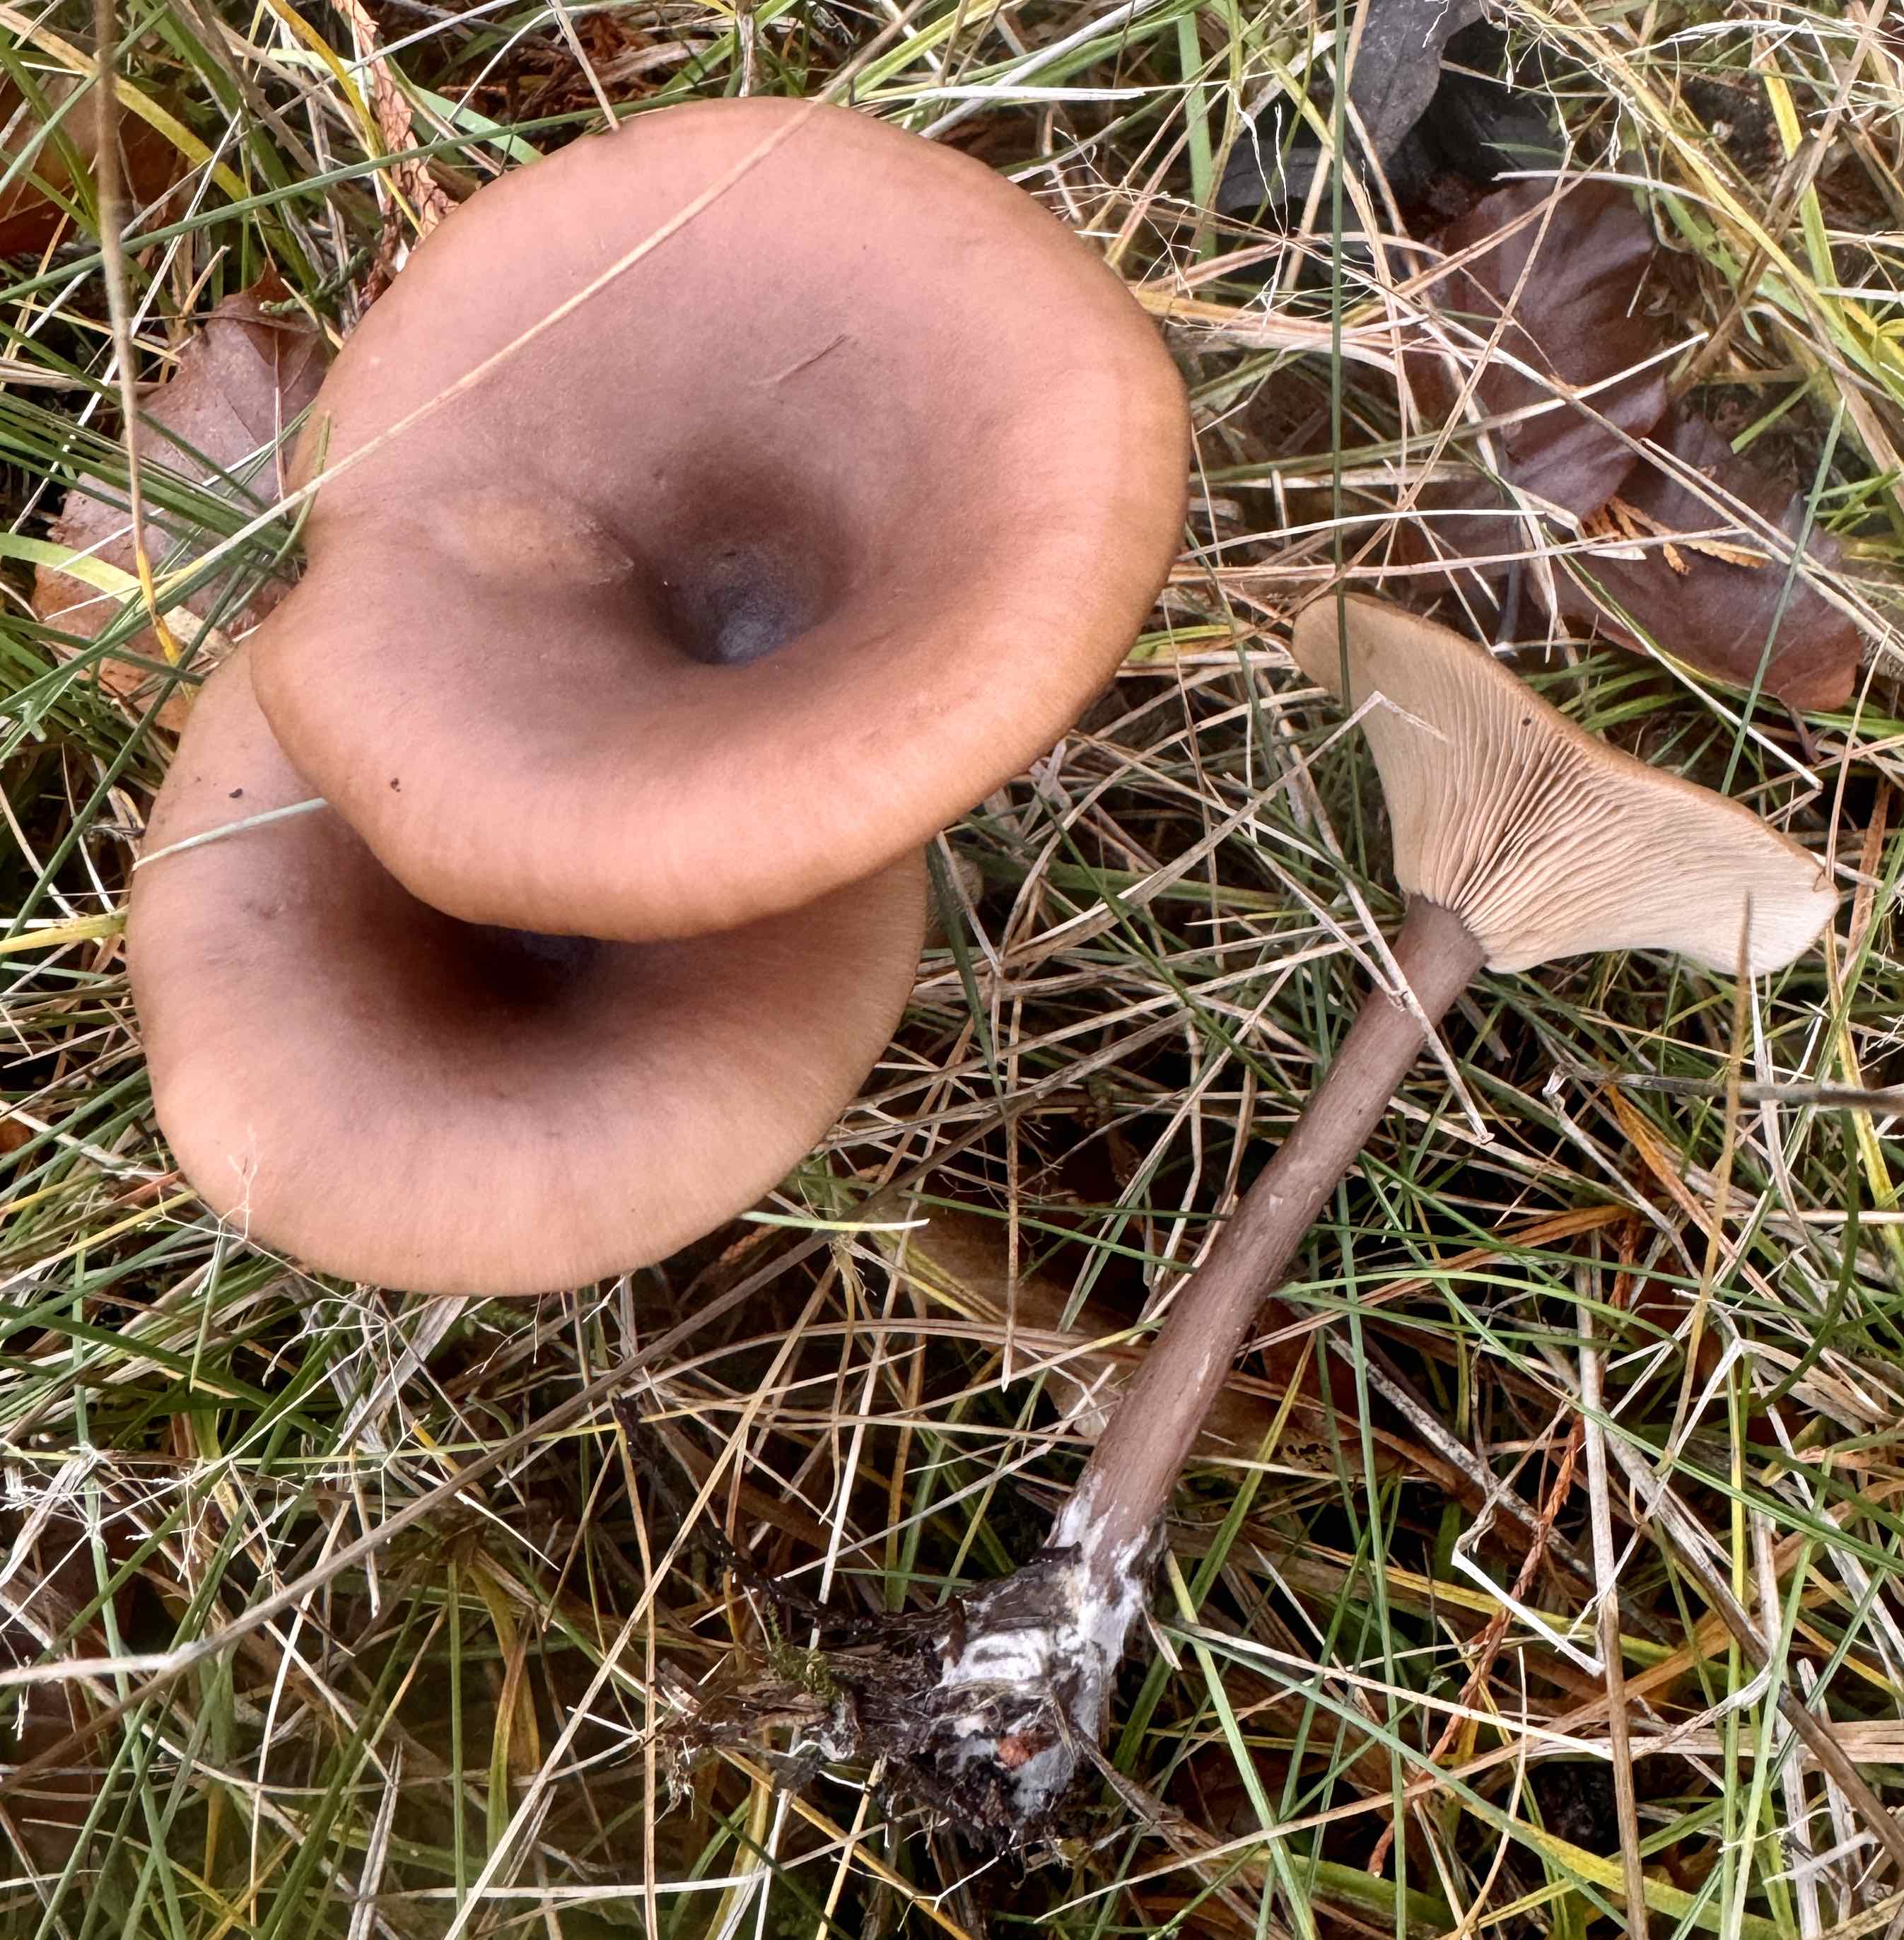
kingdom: Fungi
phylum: Basidiomycota
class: Agaricomycetes
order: Agaricales
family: Pseudoclitocybaceae
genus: Pseudoclitocybe
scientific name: Pseudoclitocybe cyathiformis
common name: almindelig bægertragthat
